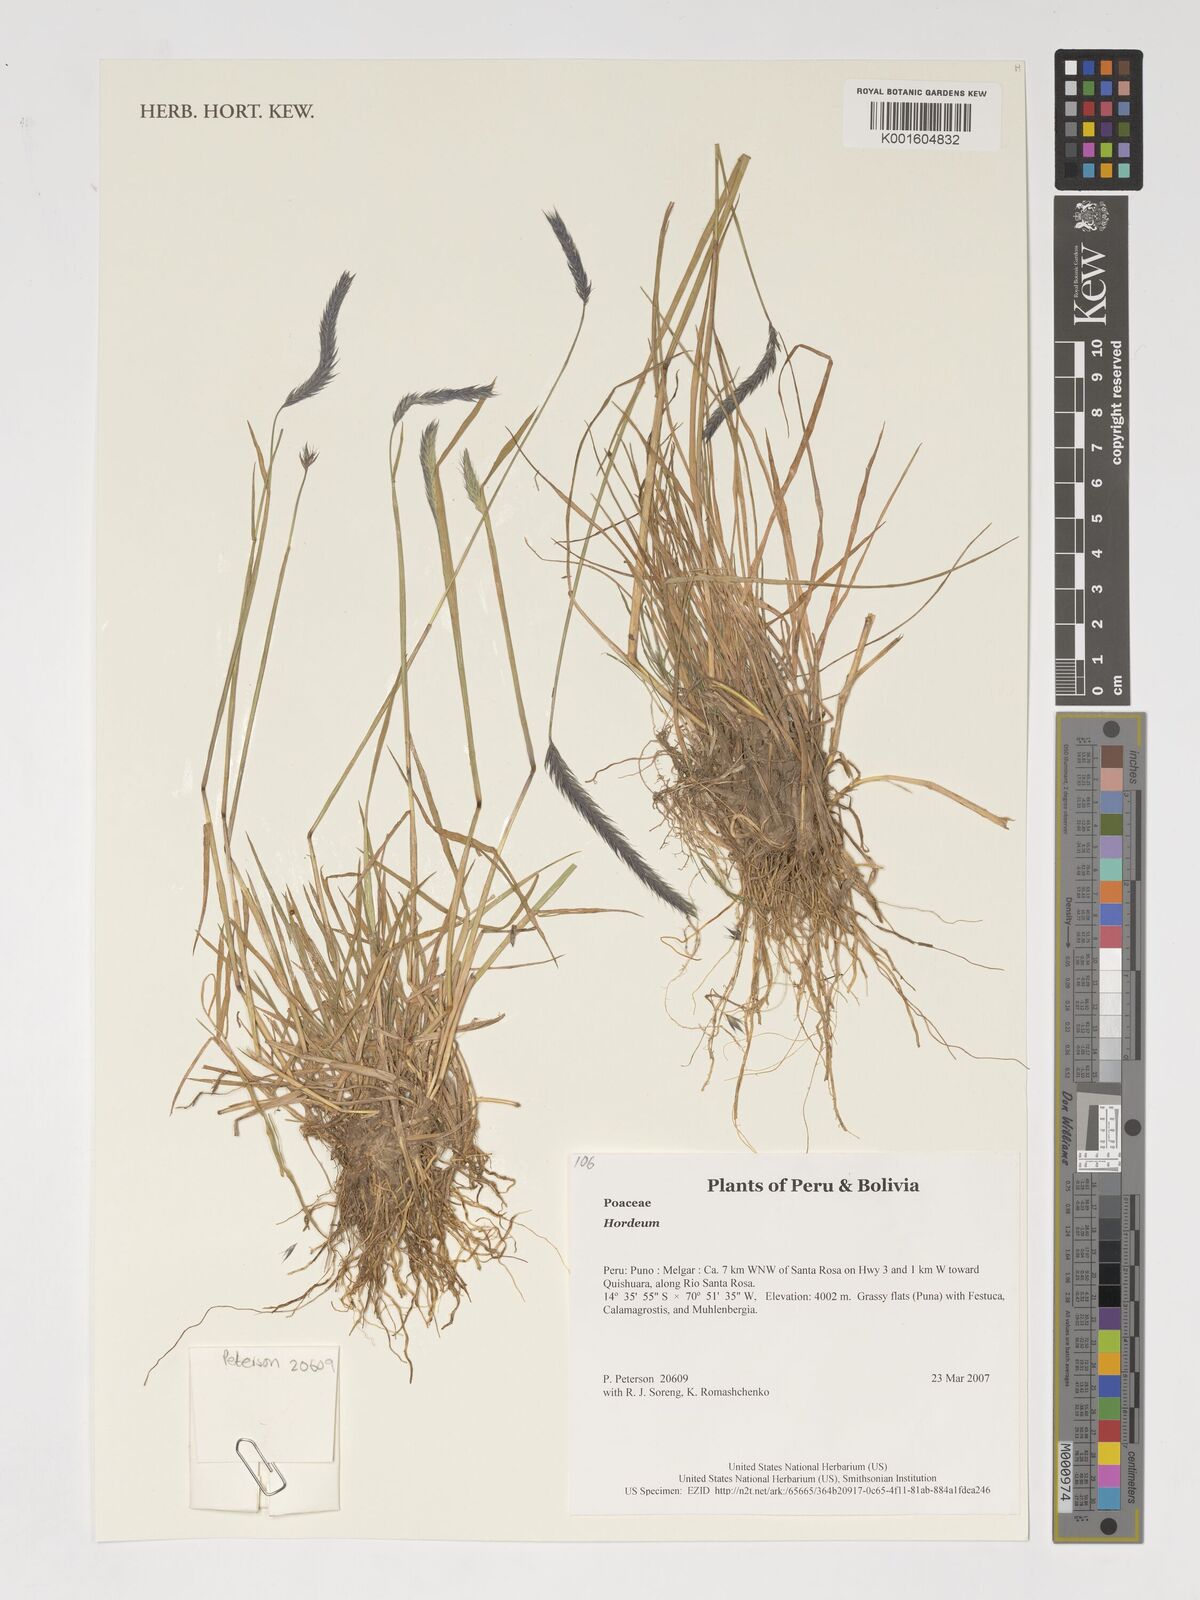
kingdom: Plantae
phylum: Tracheophyta
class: Liliopsida
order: Poales
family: Poaceae
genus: Hordeum
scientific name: Hordeum
